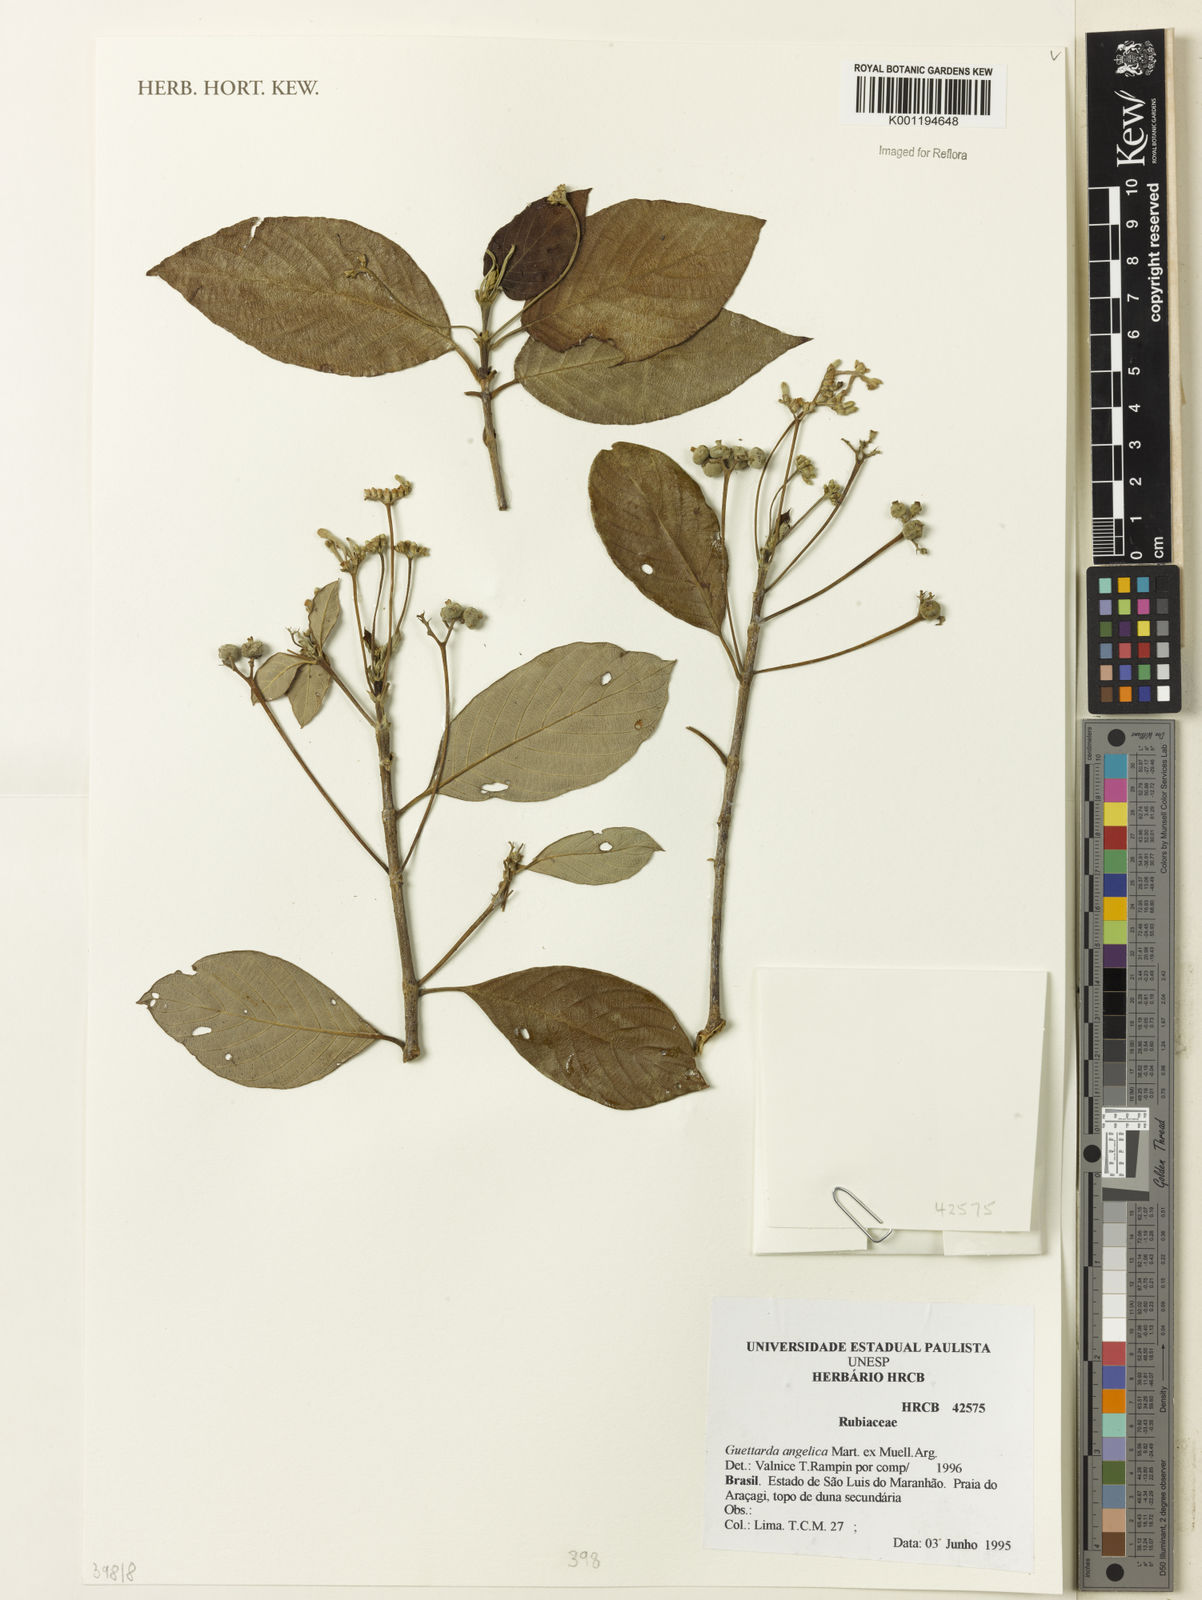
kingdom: Plantae
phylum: Tracheophyta
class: Magnoliopsida
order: Gentianales
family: Rubiaceae
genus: Guettarda
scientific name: Guettarda
